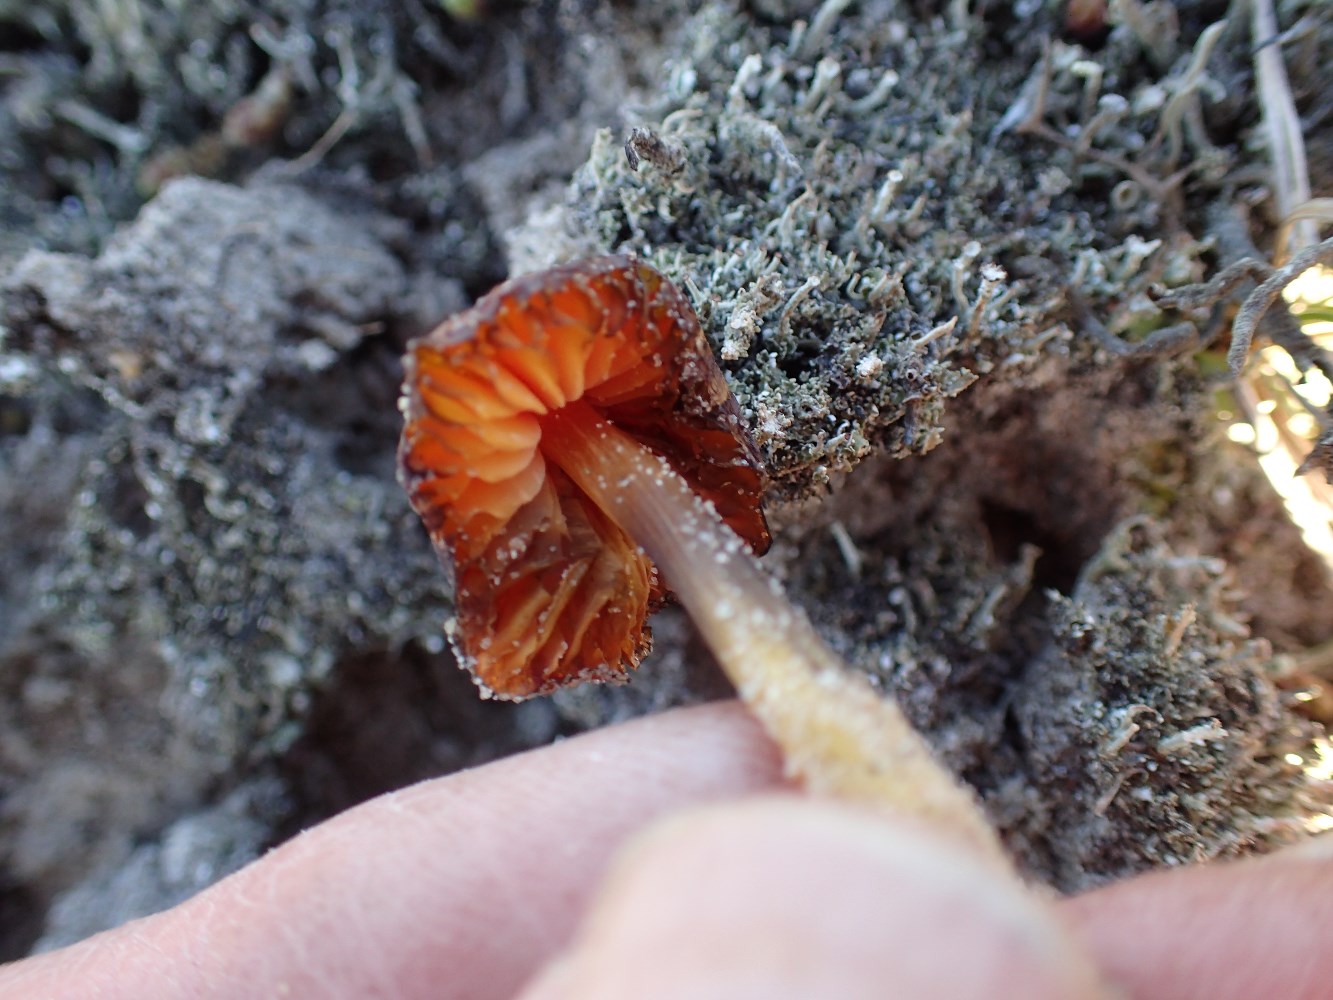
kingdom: Fungi
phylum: Basidiomycota
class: Agaricomycetes
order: Agaricales
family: Hygrophoraceae
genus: Hygrocybe
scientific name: Hygrocybe conicoides
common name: klit-vokshat
